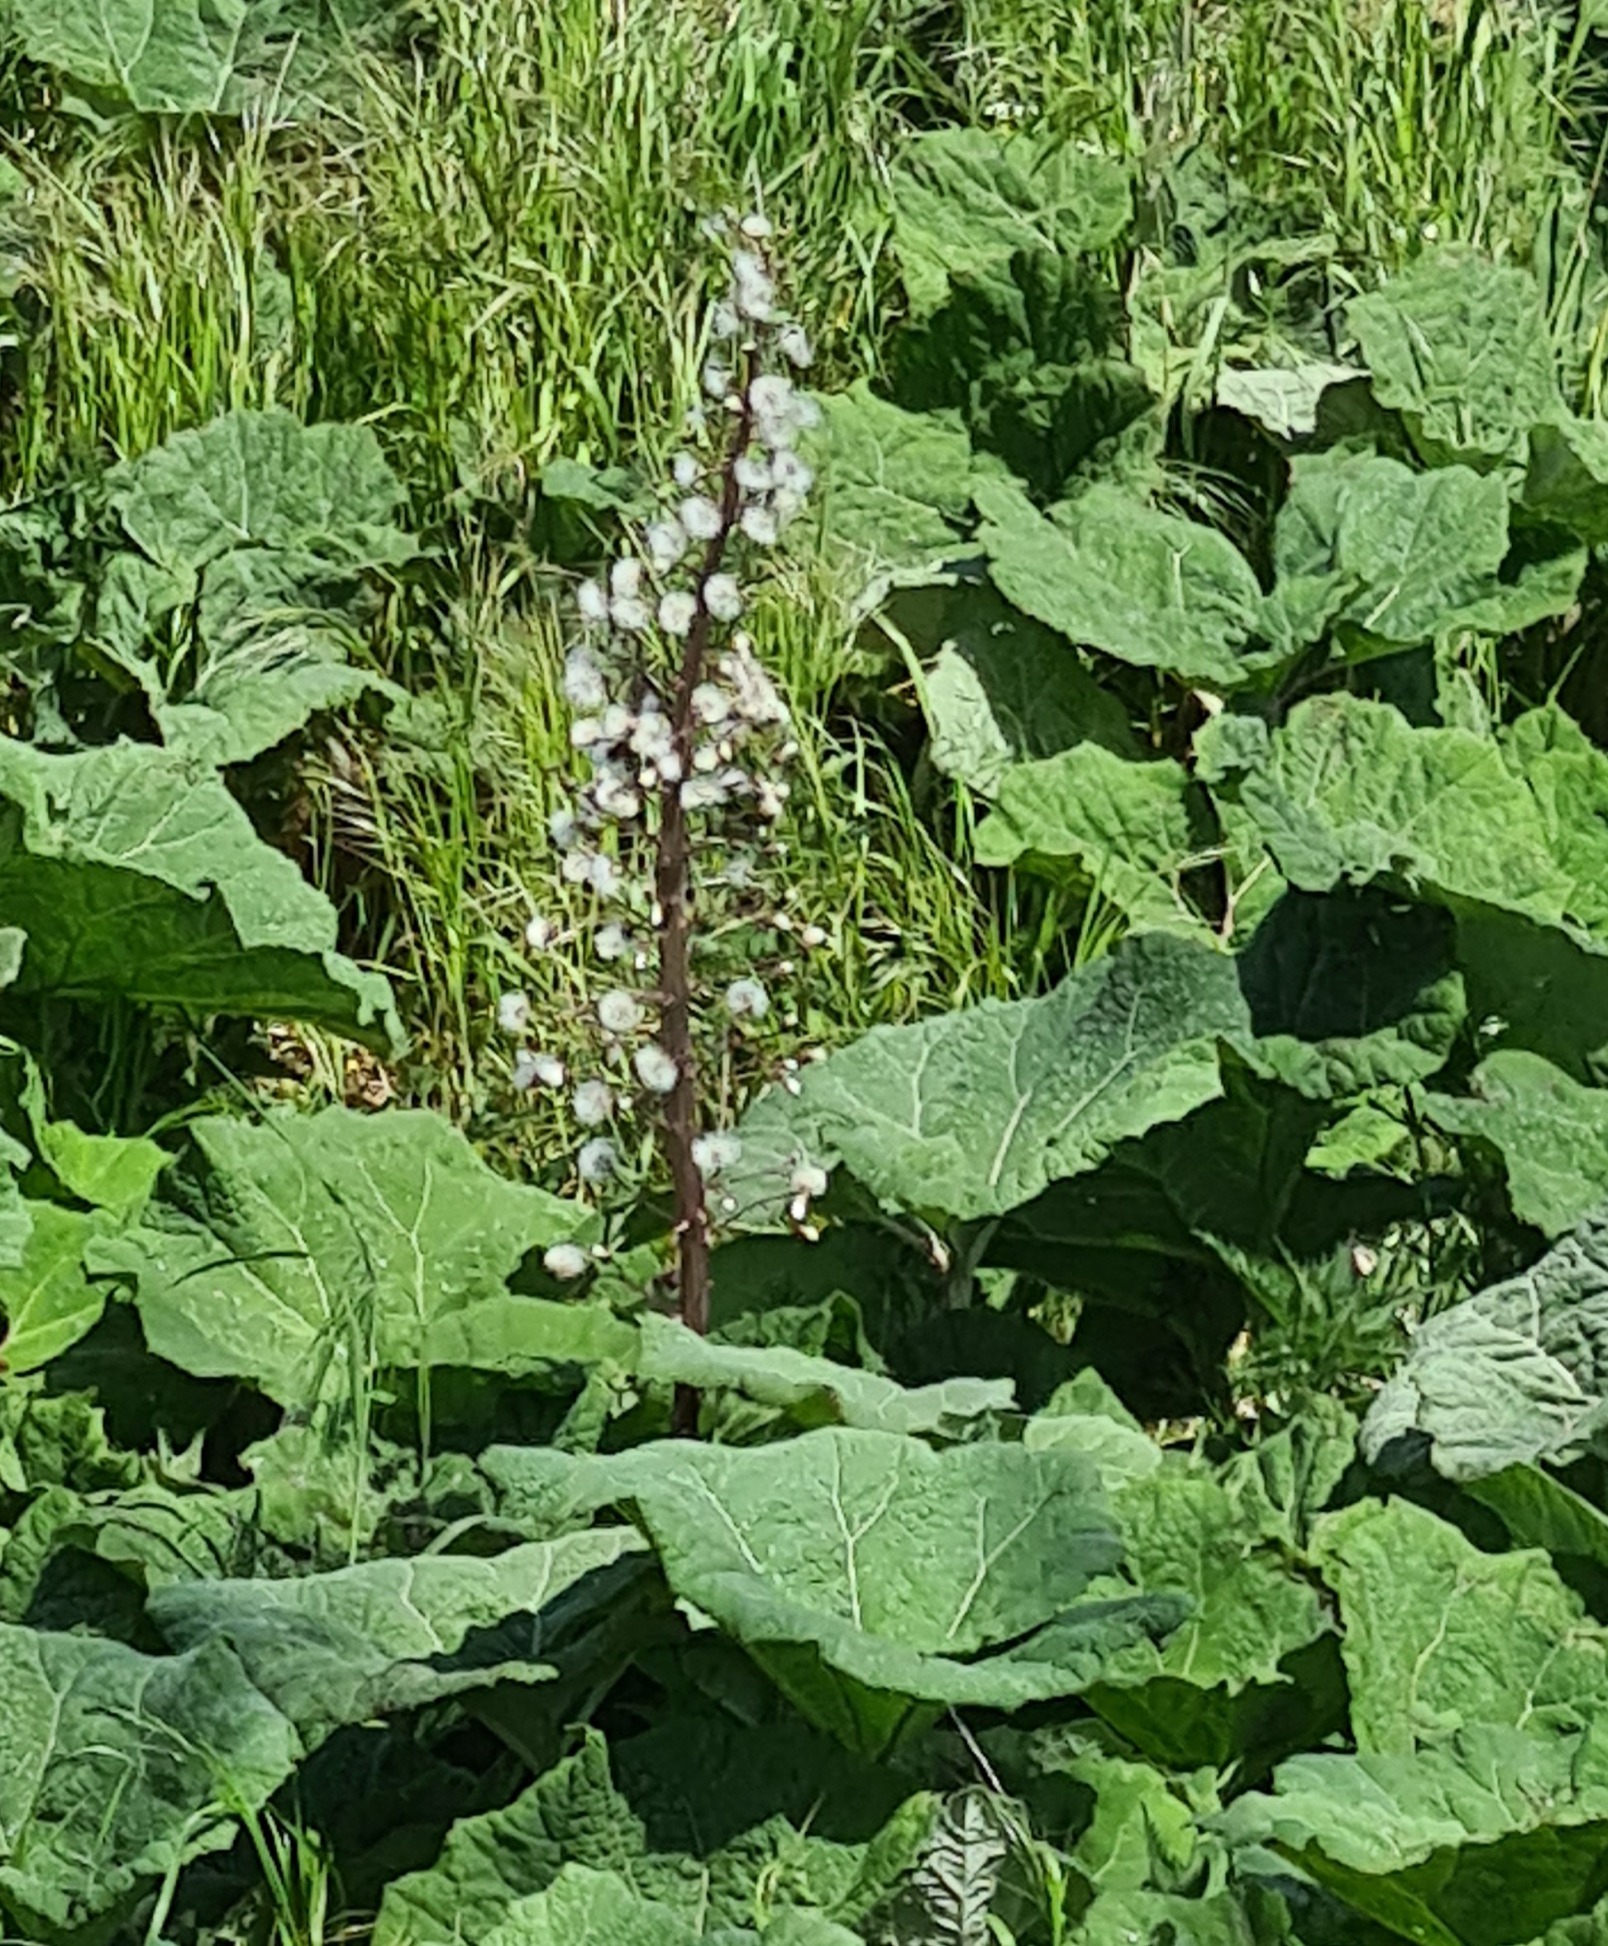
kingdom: Plantae
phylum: Tracheophyta
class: Magnoliopsida
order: Asterales
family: Asteraceae
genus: Petasites
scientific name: Petasites hybridus
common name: Rød hestehov
